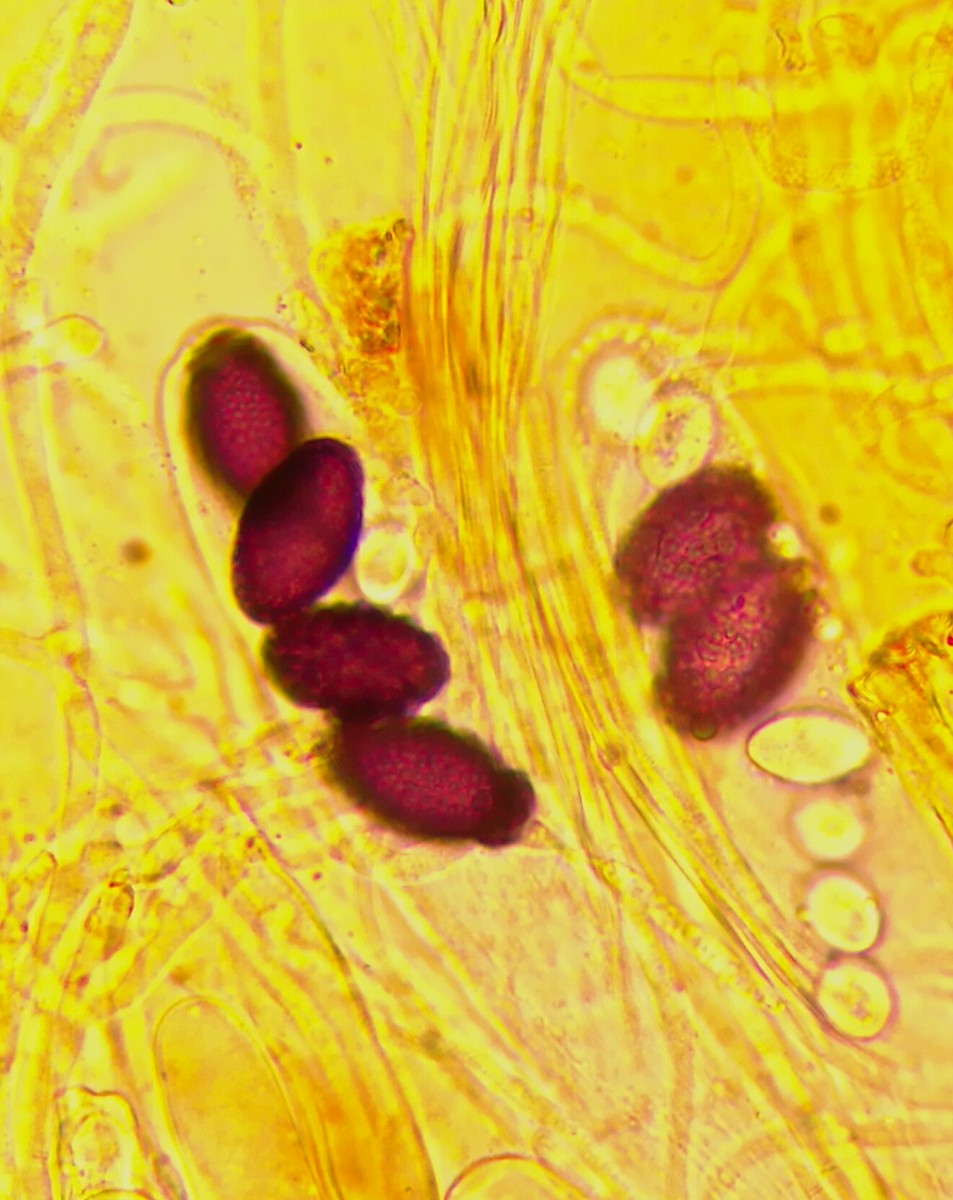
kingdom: Fungi
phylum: Ascomycota
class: Pezizomycetes
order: Pezizales
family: Ascobolaceae
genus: Ascobolus
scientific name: Ascobolus carbonarius
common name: kul-prikbæger
